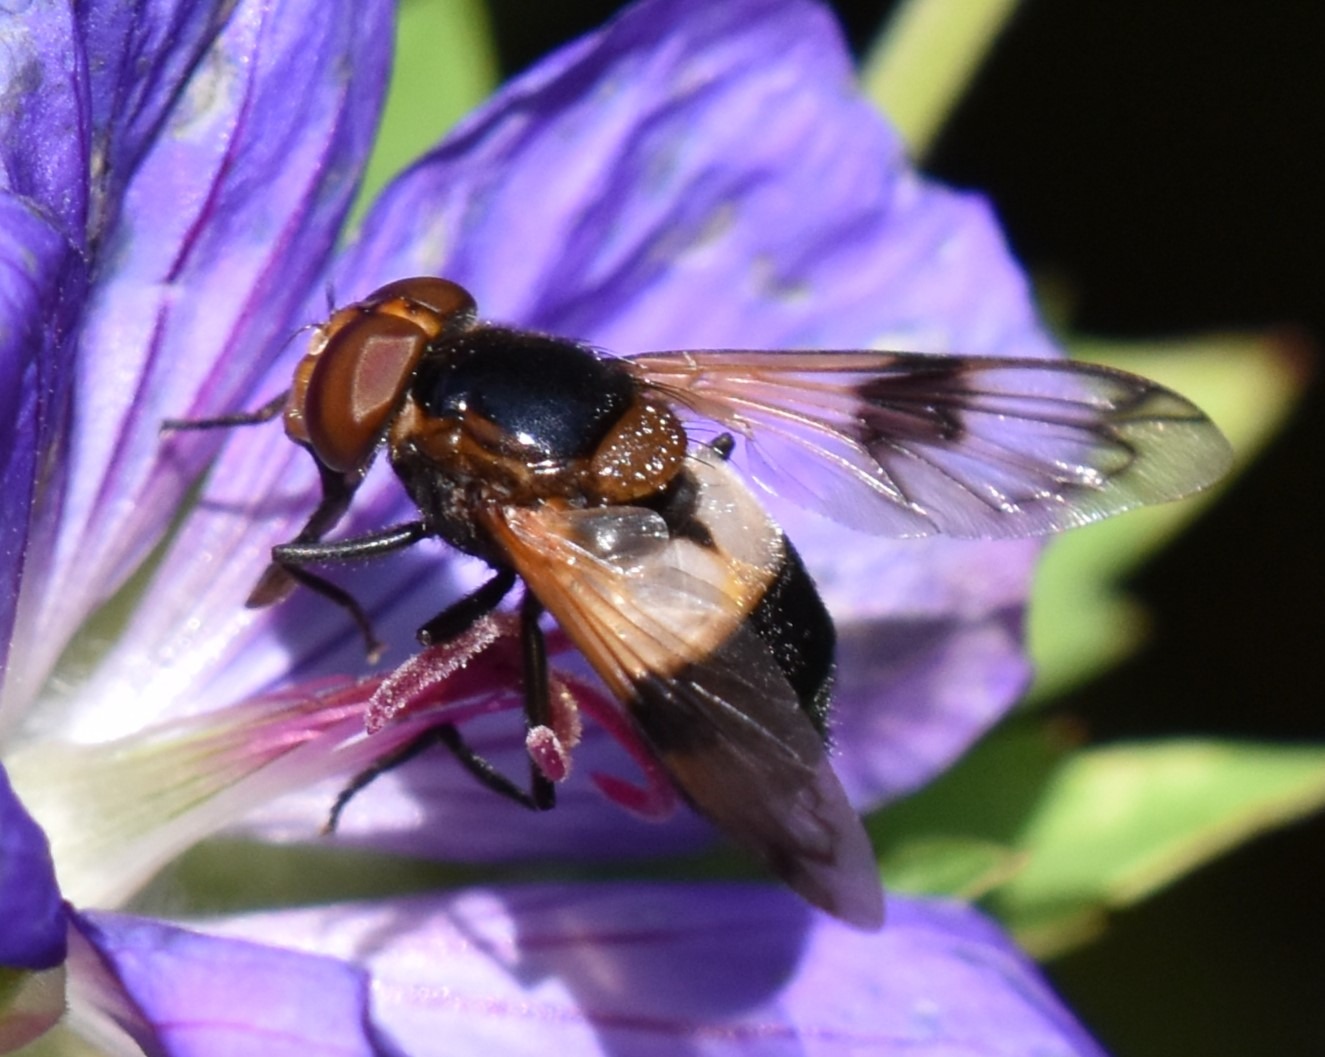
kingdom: Animalia
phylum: Arthropoda
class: Insecta
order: Diptera
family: Syrphidae
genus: Volucella
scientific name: Volucella pellucens
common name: Hvidbåndet humlesvirreflue
